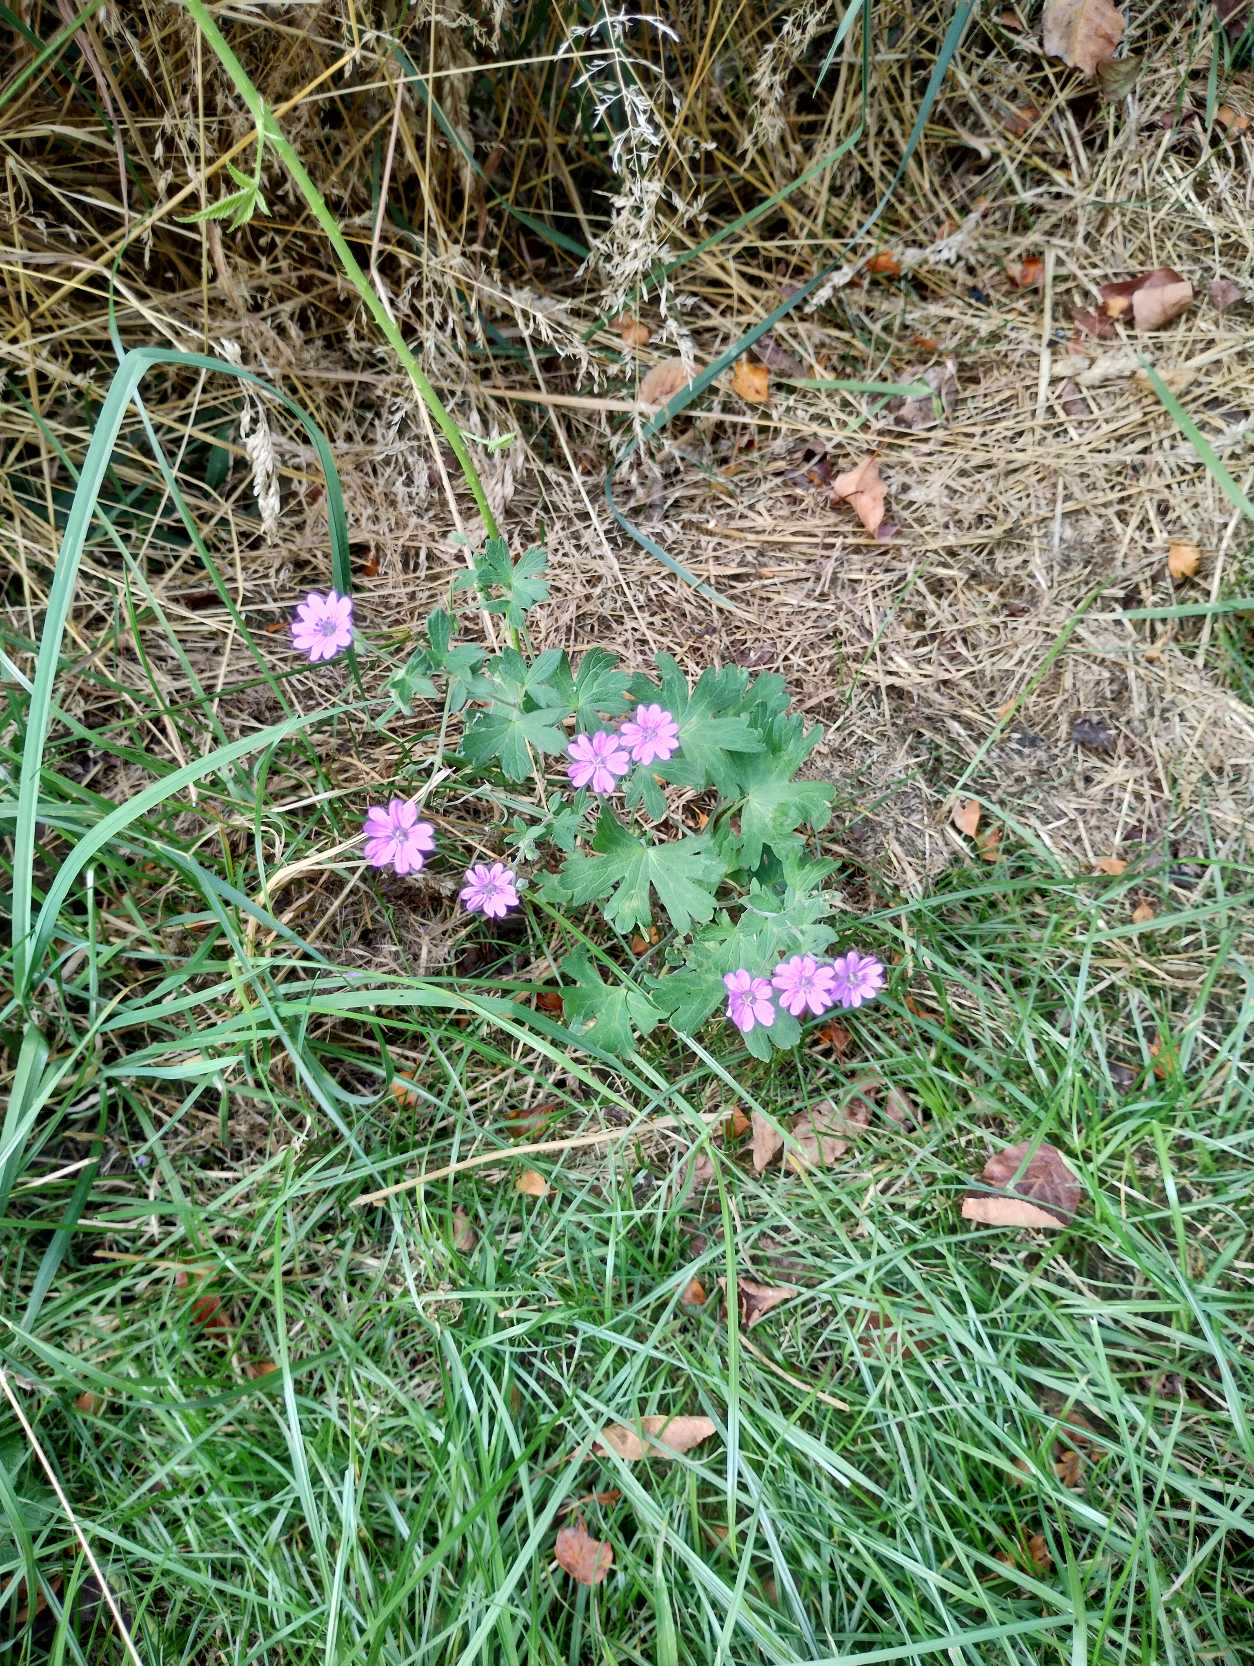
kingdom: Plantae
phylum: Tracheophyta
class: Magnoliopsida
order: Geraniales
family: Geraniaceae
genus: Geranium
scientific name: Geranium pyrenaicum
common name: Pyrenæisk storkenæb
